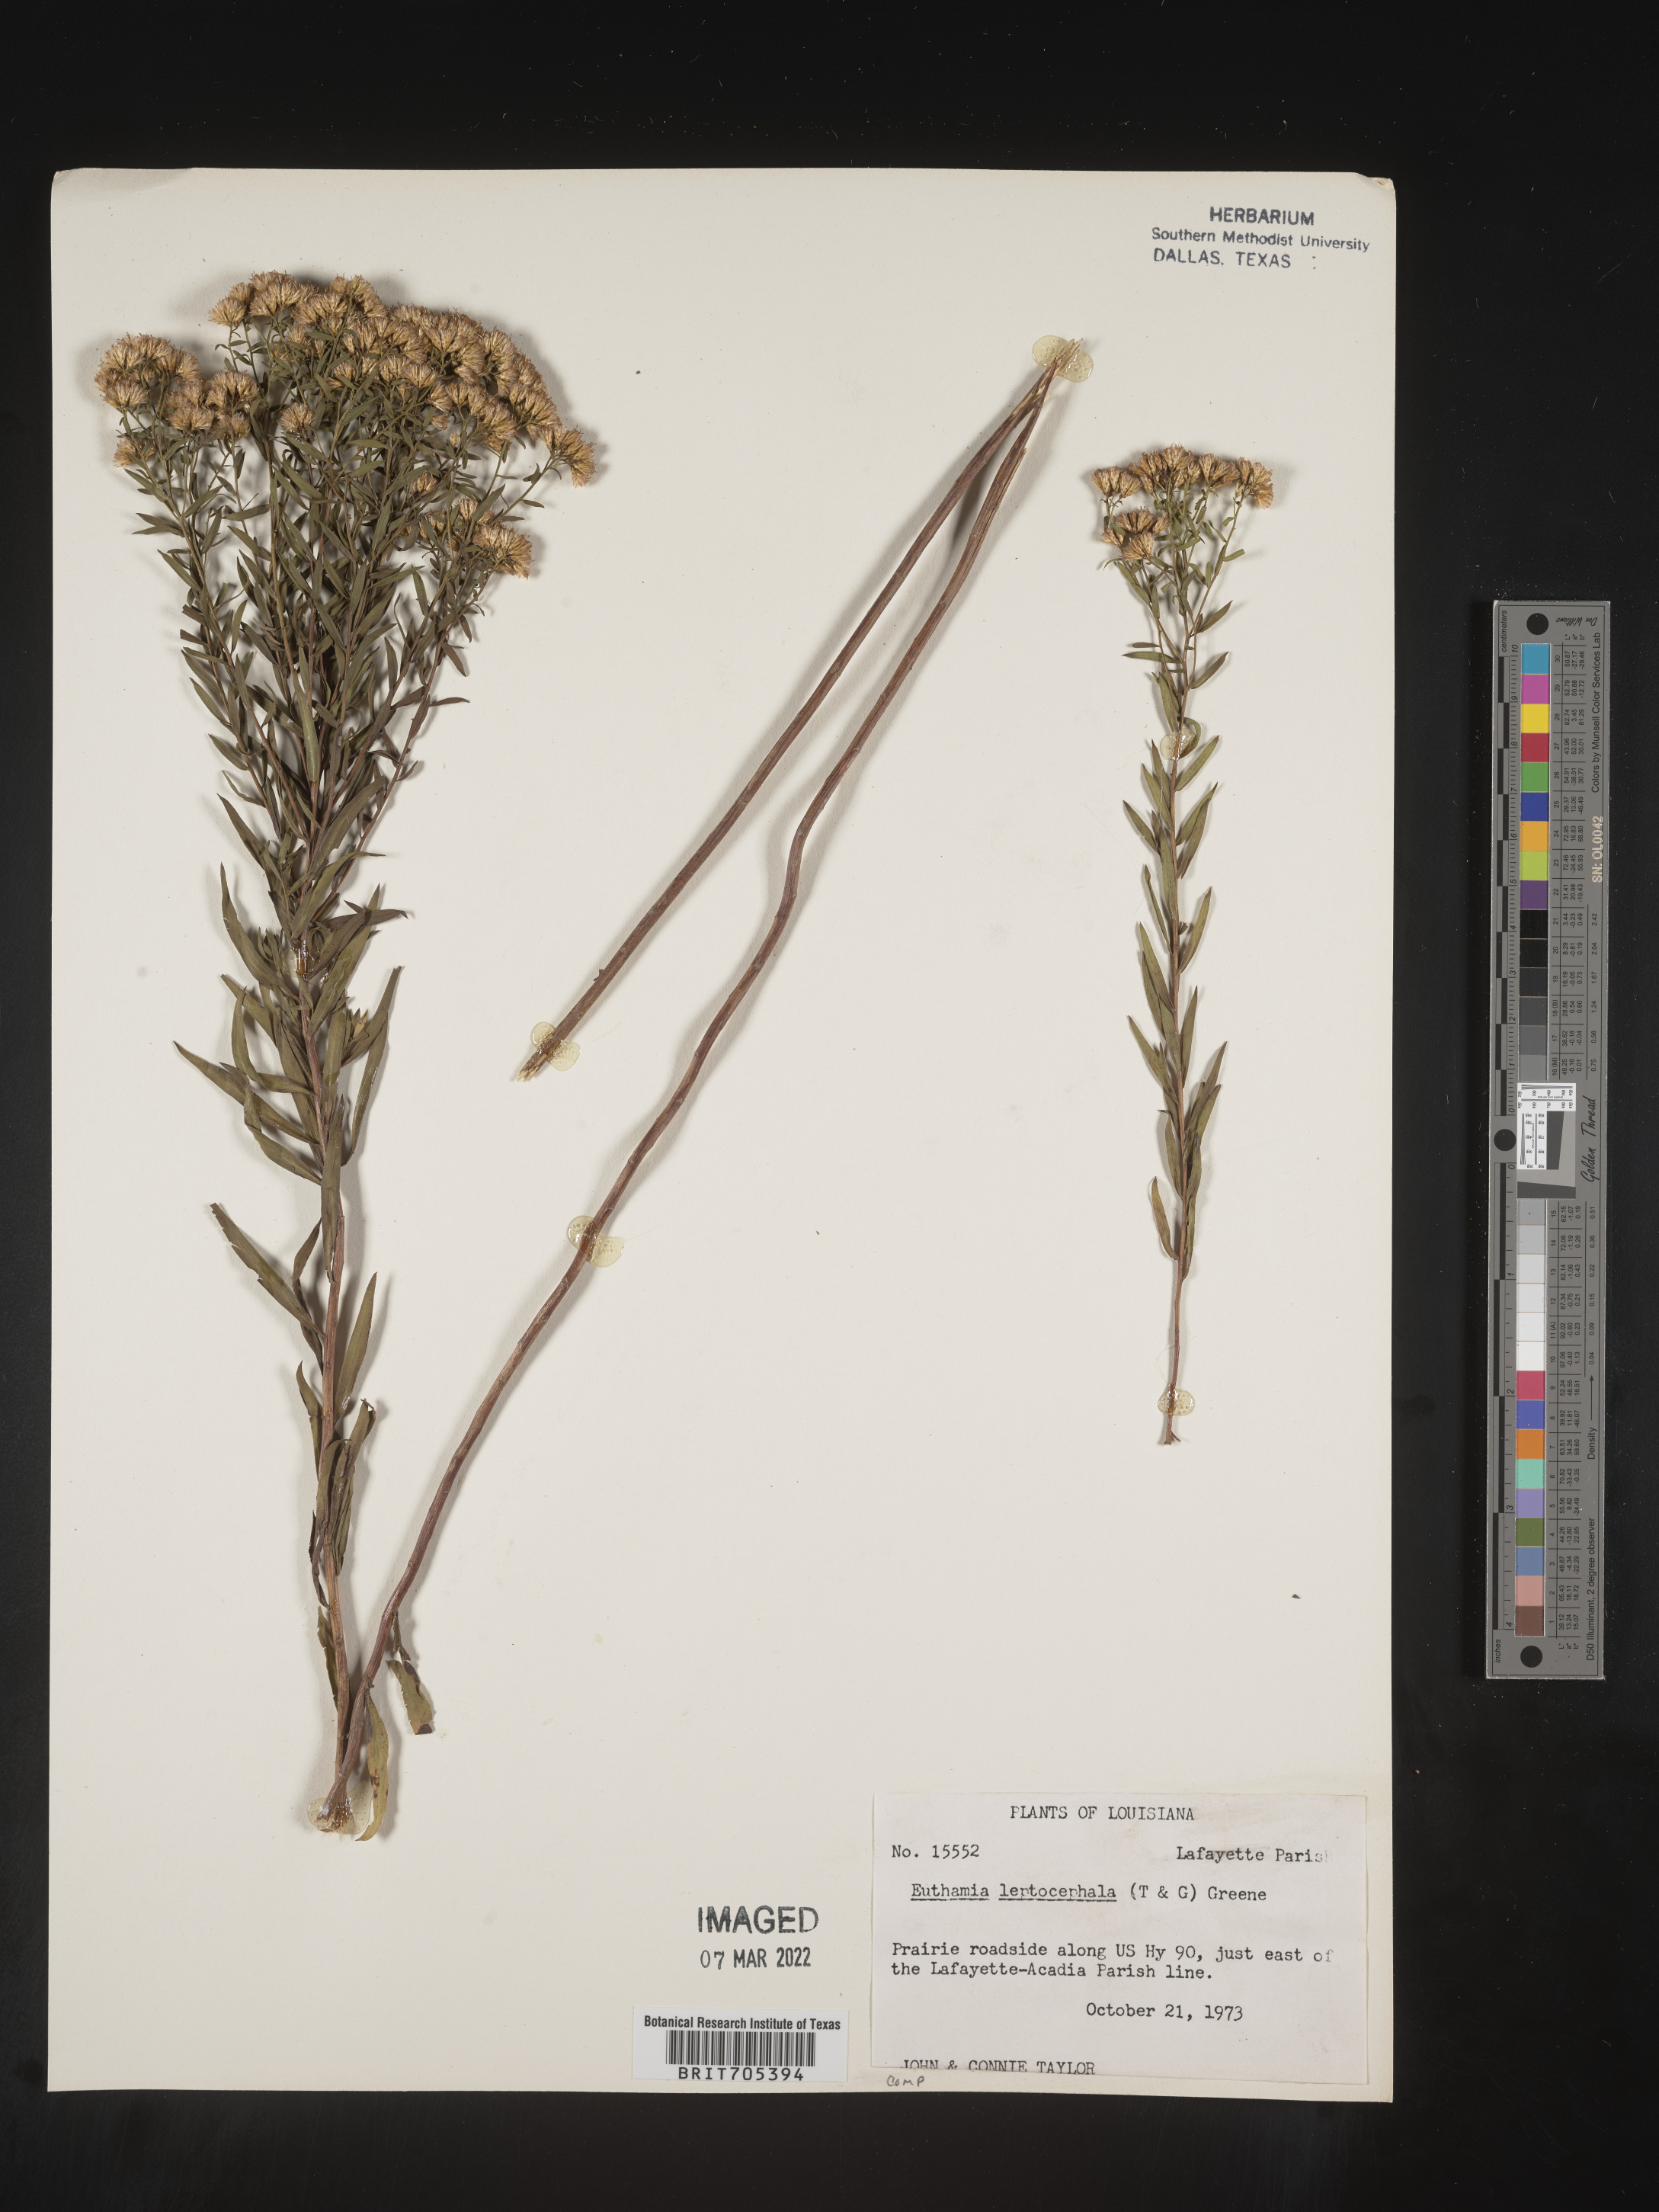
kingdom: Plantae
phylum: Tracheophyta
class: Magnoliopsida
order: Asterales
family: Asteraceae
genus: Euthamia
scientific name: Euthamia leptocephala
